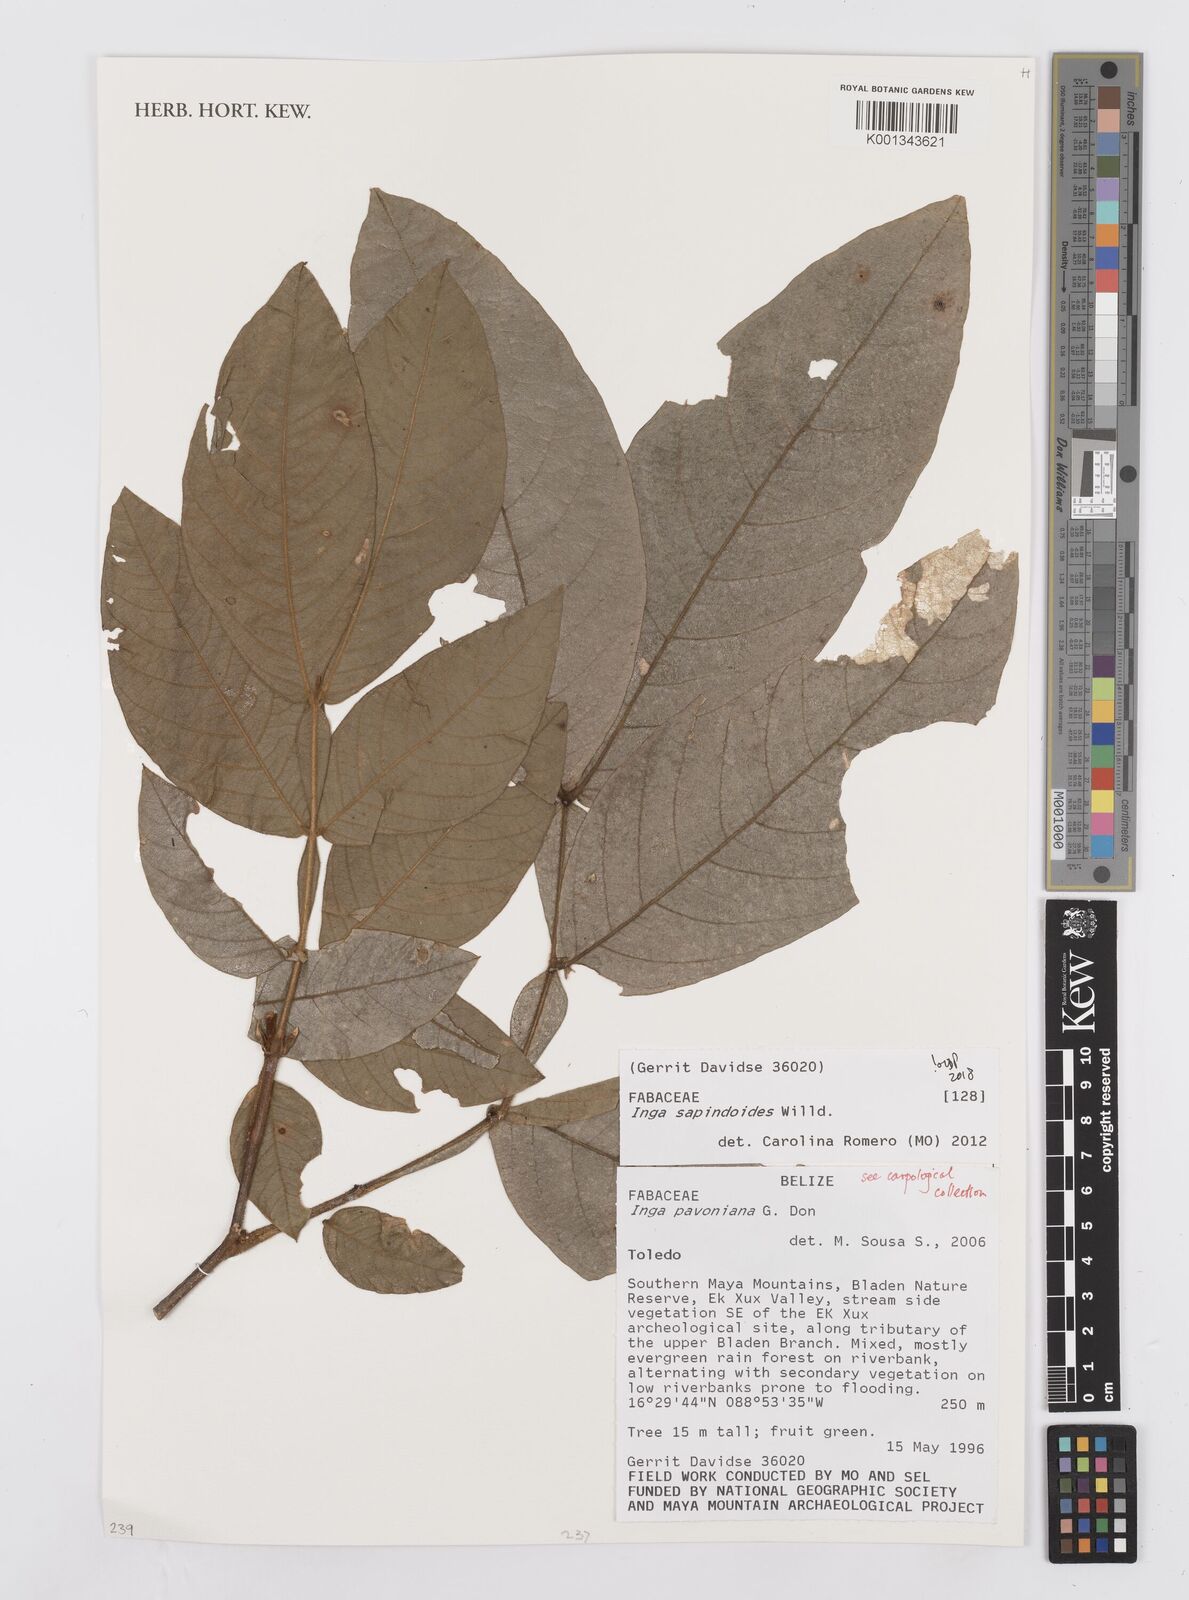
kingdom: Plantae
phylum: Tracheophyta
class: Magnoliopsida
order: Fabales
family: Fabaceae
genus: Inga
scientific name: Inga sapindoides
